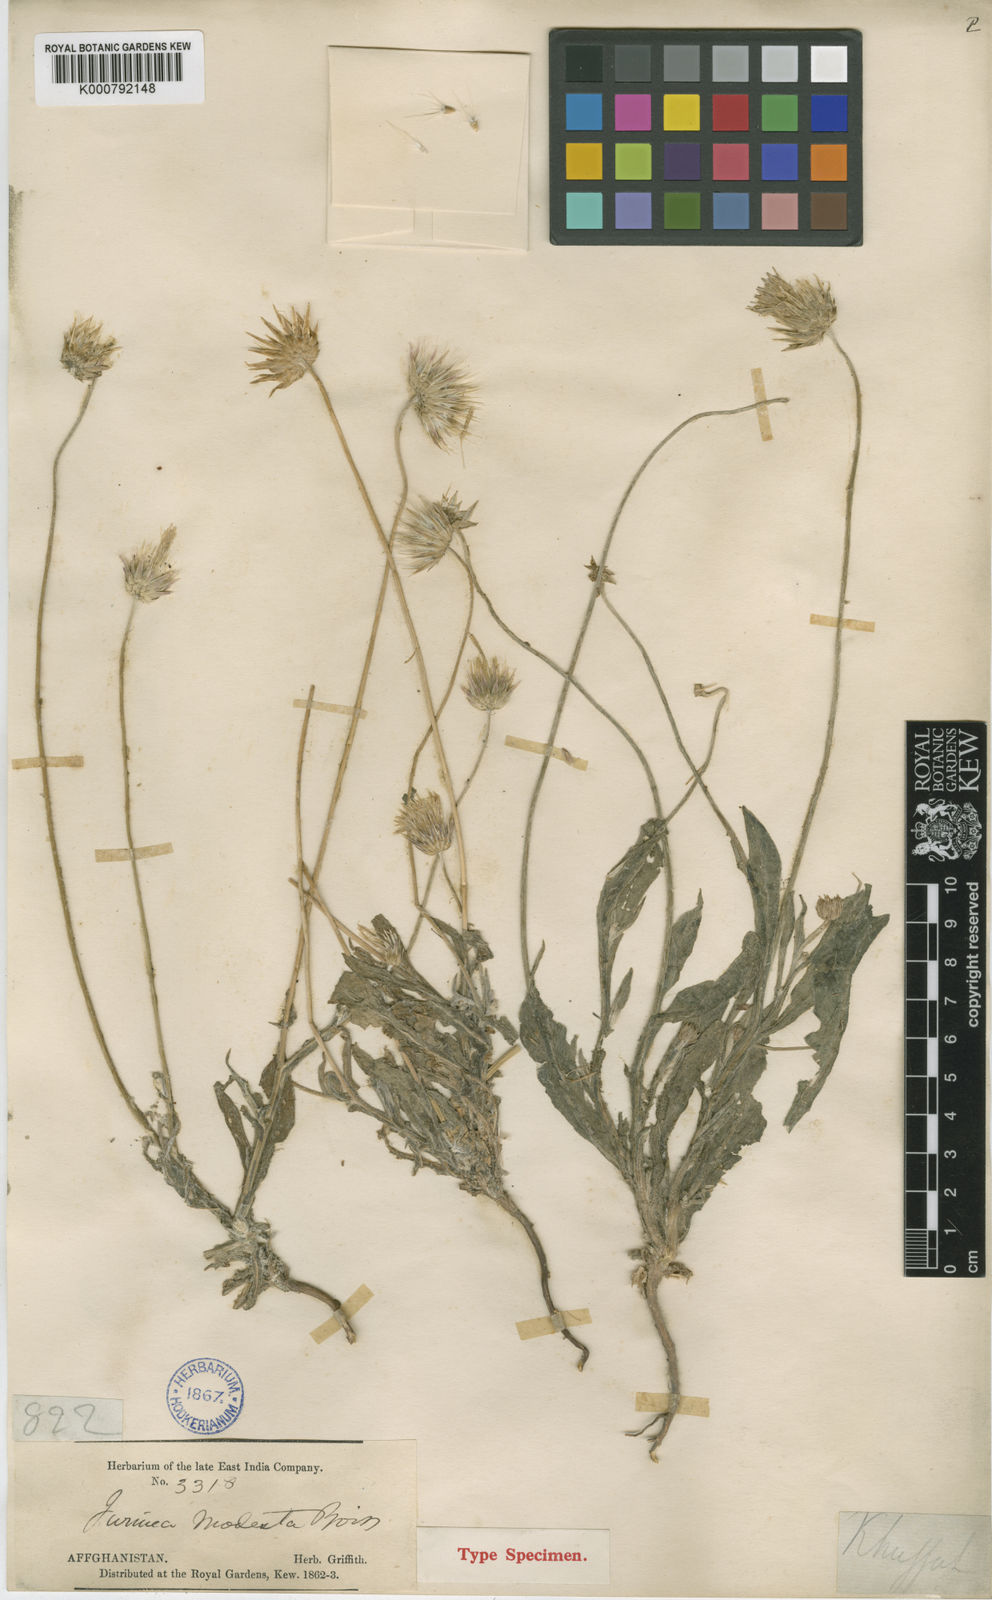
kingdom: Plantae
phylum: Tracheophyta
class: Magnoliopsida
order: Asterales
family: Asteraceae
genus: Jurinea
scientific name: Jurinea
